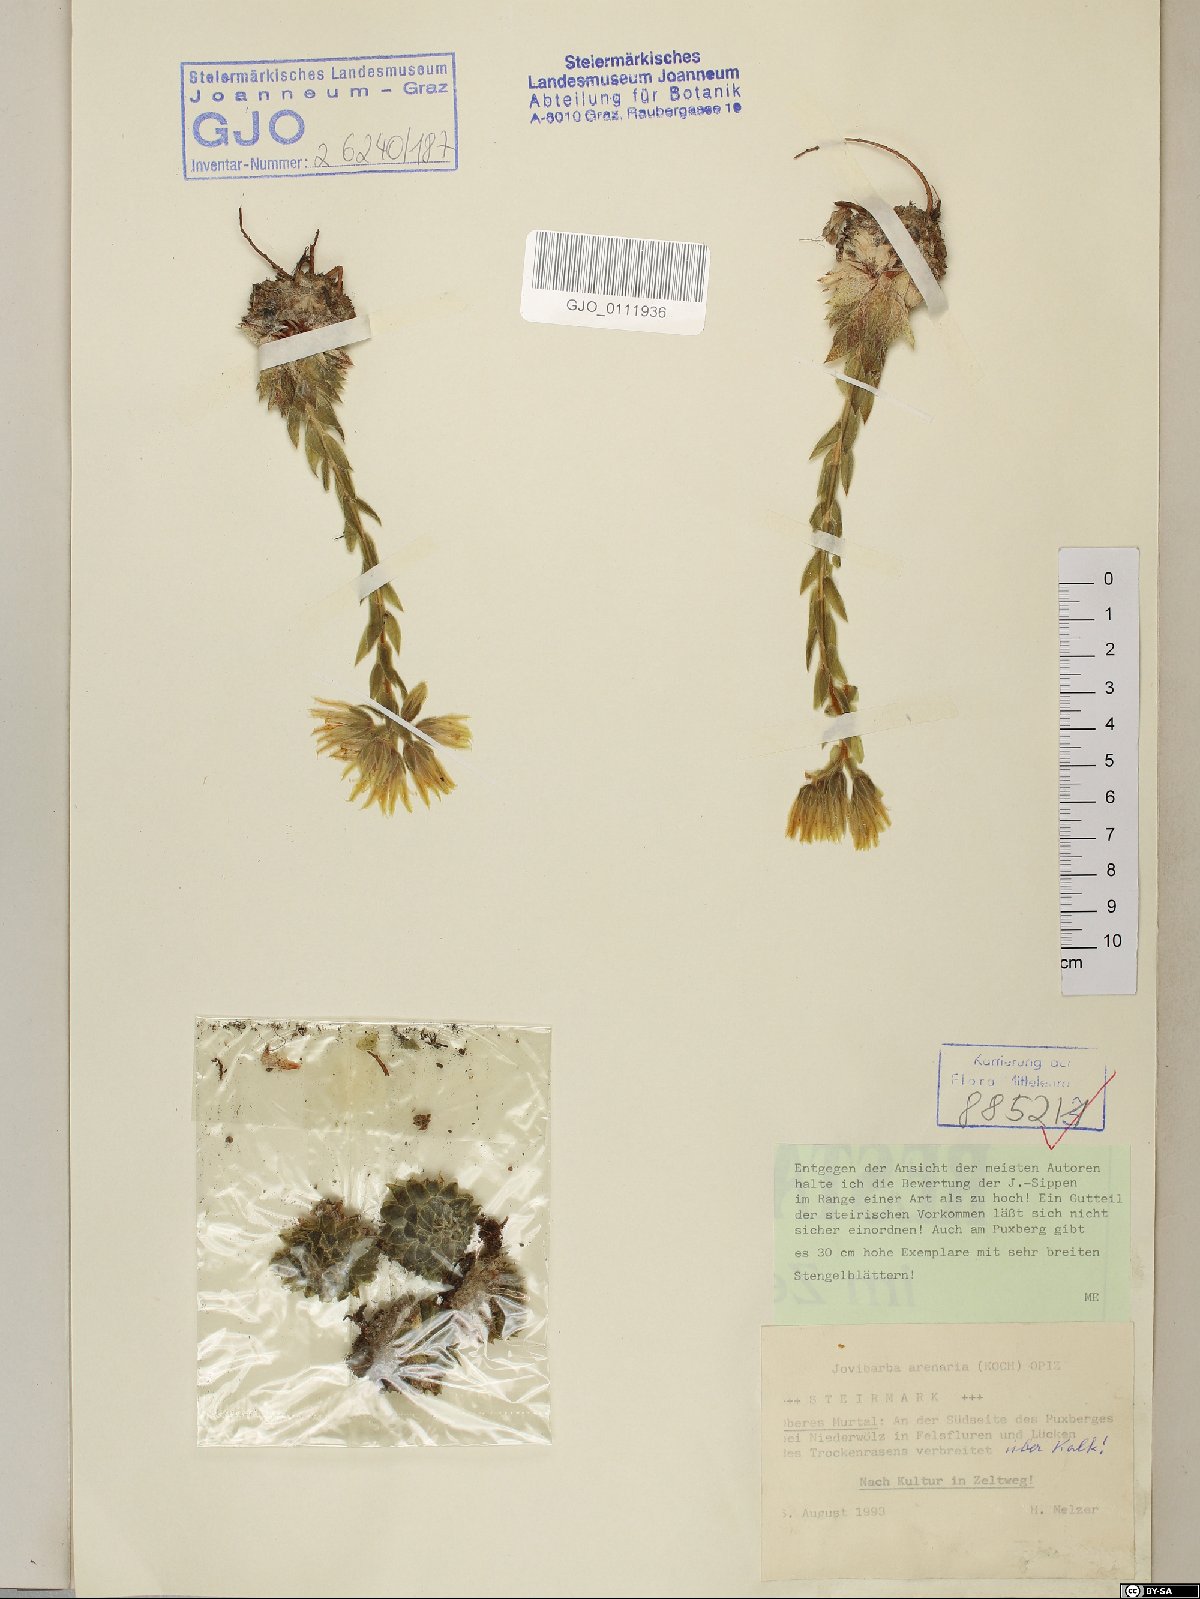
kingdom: Plantae
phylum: Tracheophyta
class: Magnoliopsida
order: Saxifragales
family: Crassulaceae
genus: Sempervivum
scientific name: Sempervivum globiferum
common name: Rolling hen-and-chicks
